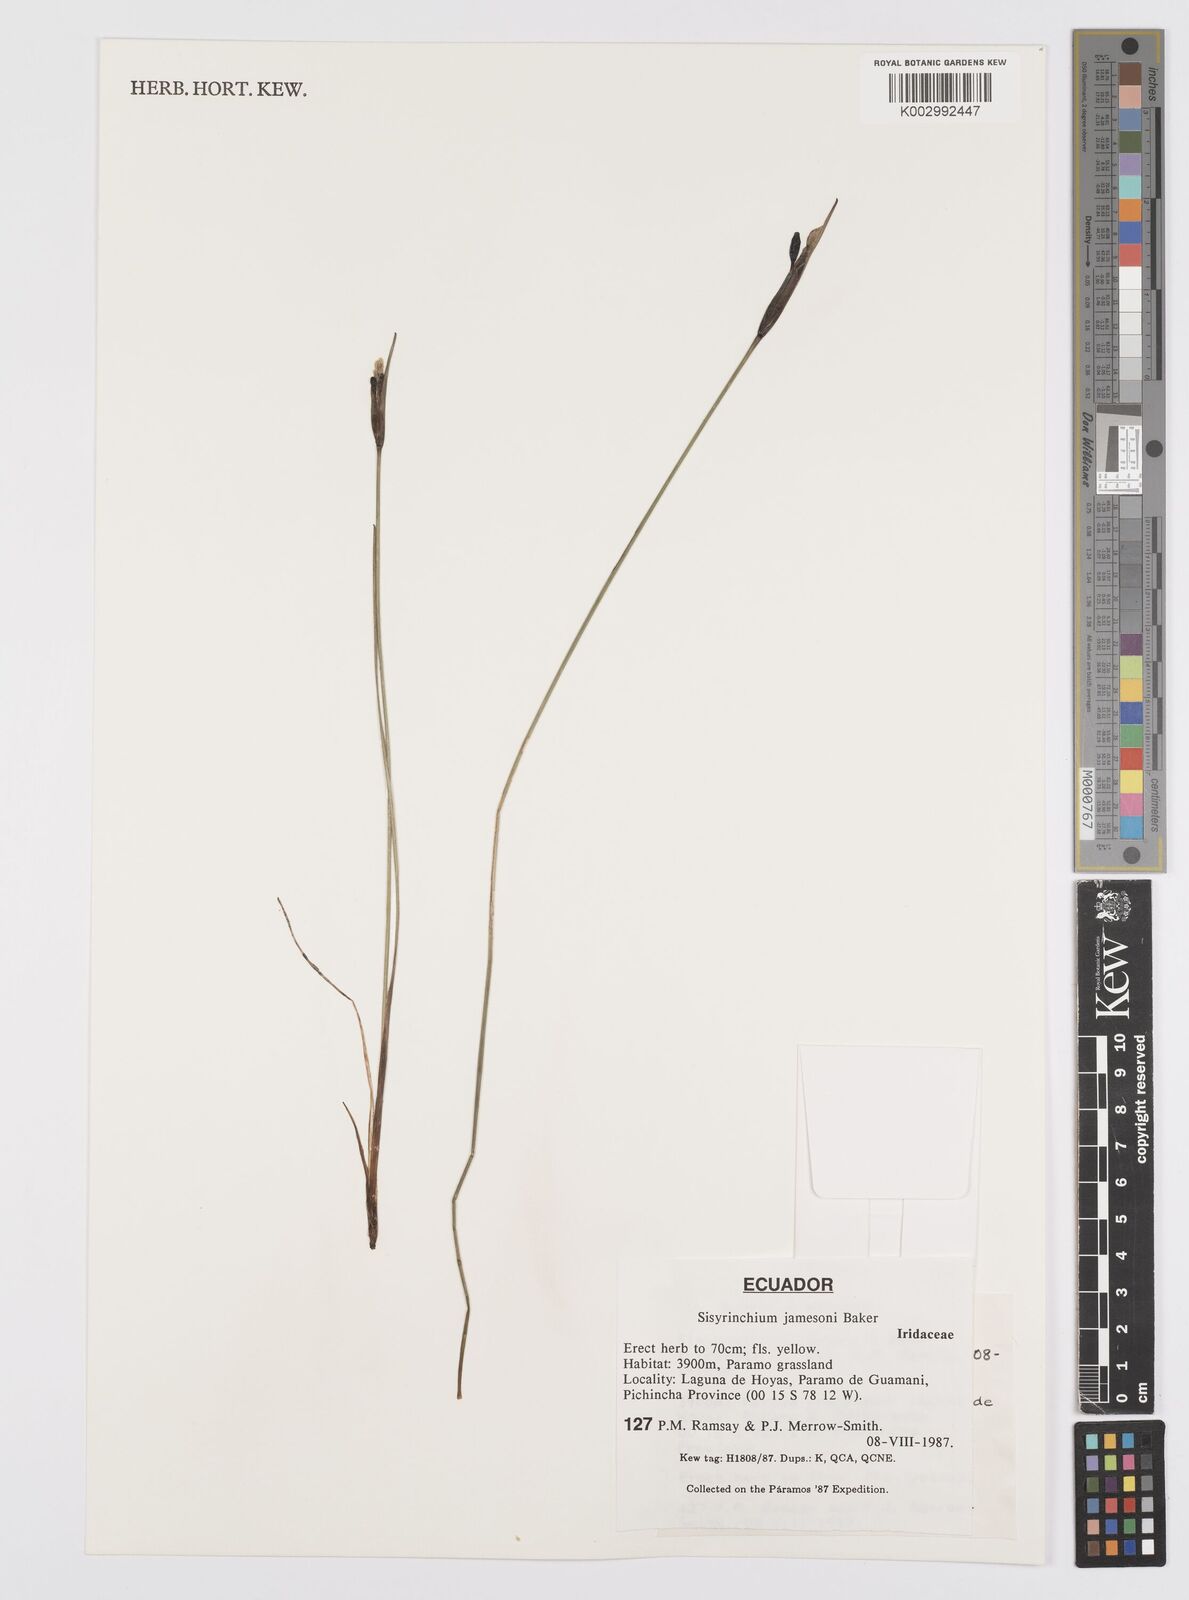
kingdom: Plantae
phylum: Tracheophyta
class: Liliopsida
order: Asparagales
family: Iridaceae
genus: Sisyrinchium
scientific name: Sisyrinchium jamesonii
